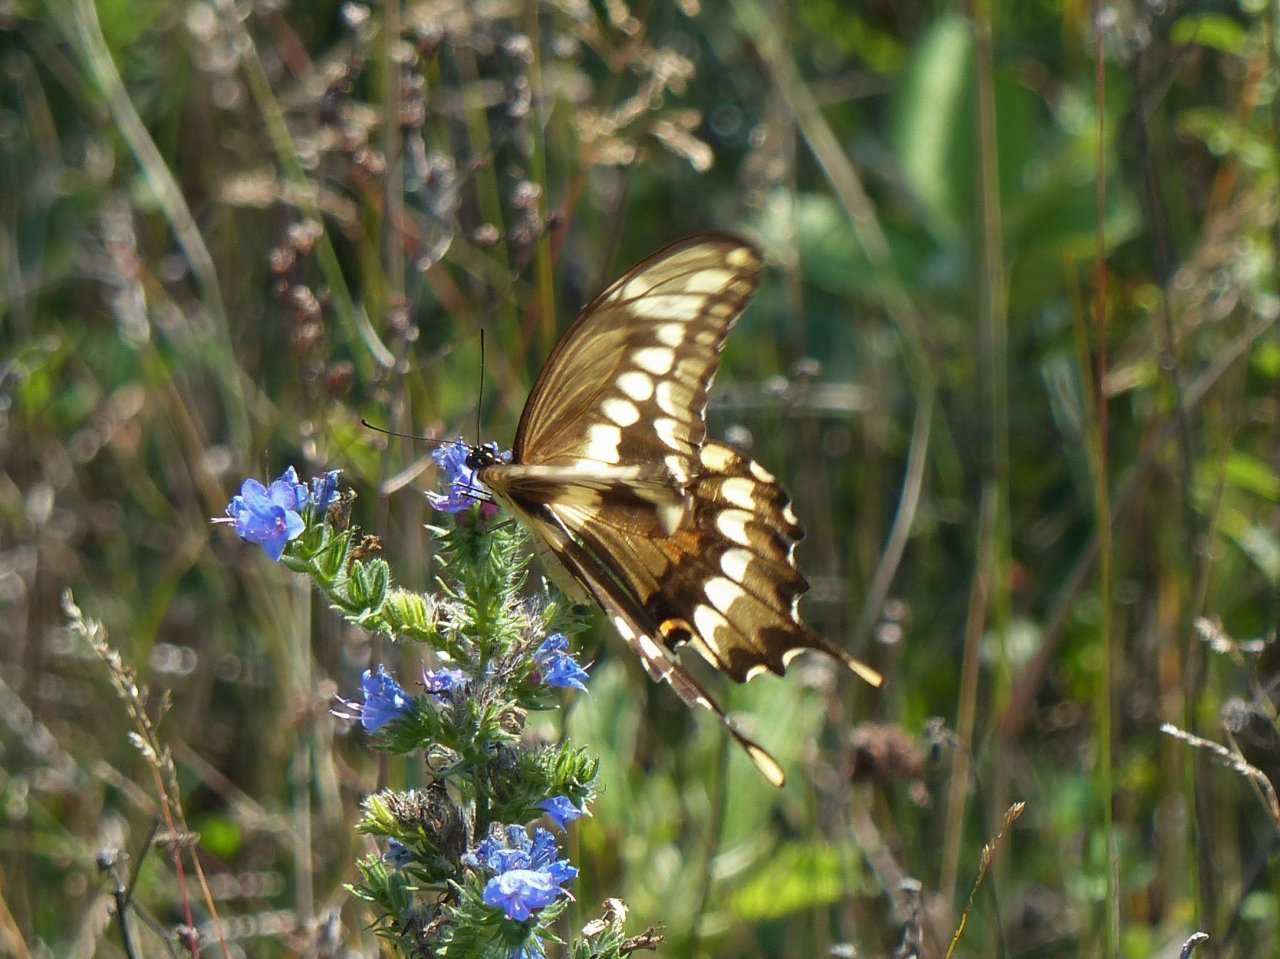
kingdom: Animalia
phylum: Arthropoda
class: Insecta
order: Lepidoptera
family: Papilionidae
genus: Papilio
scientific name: Papilio cresphontes
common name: Eastern Giant Swallowtail
